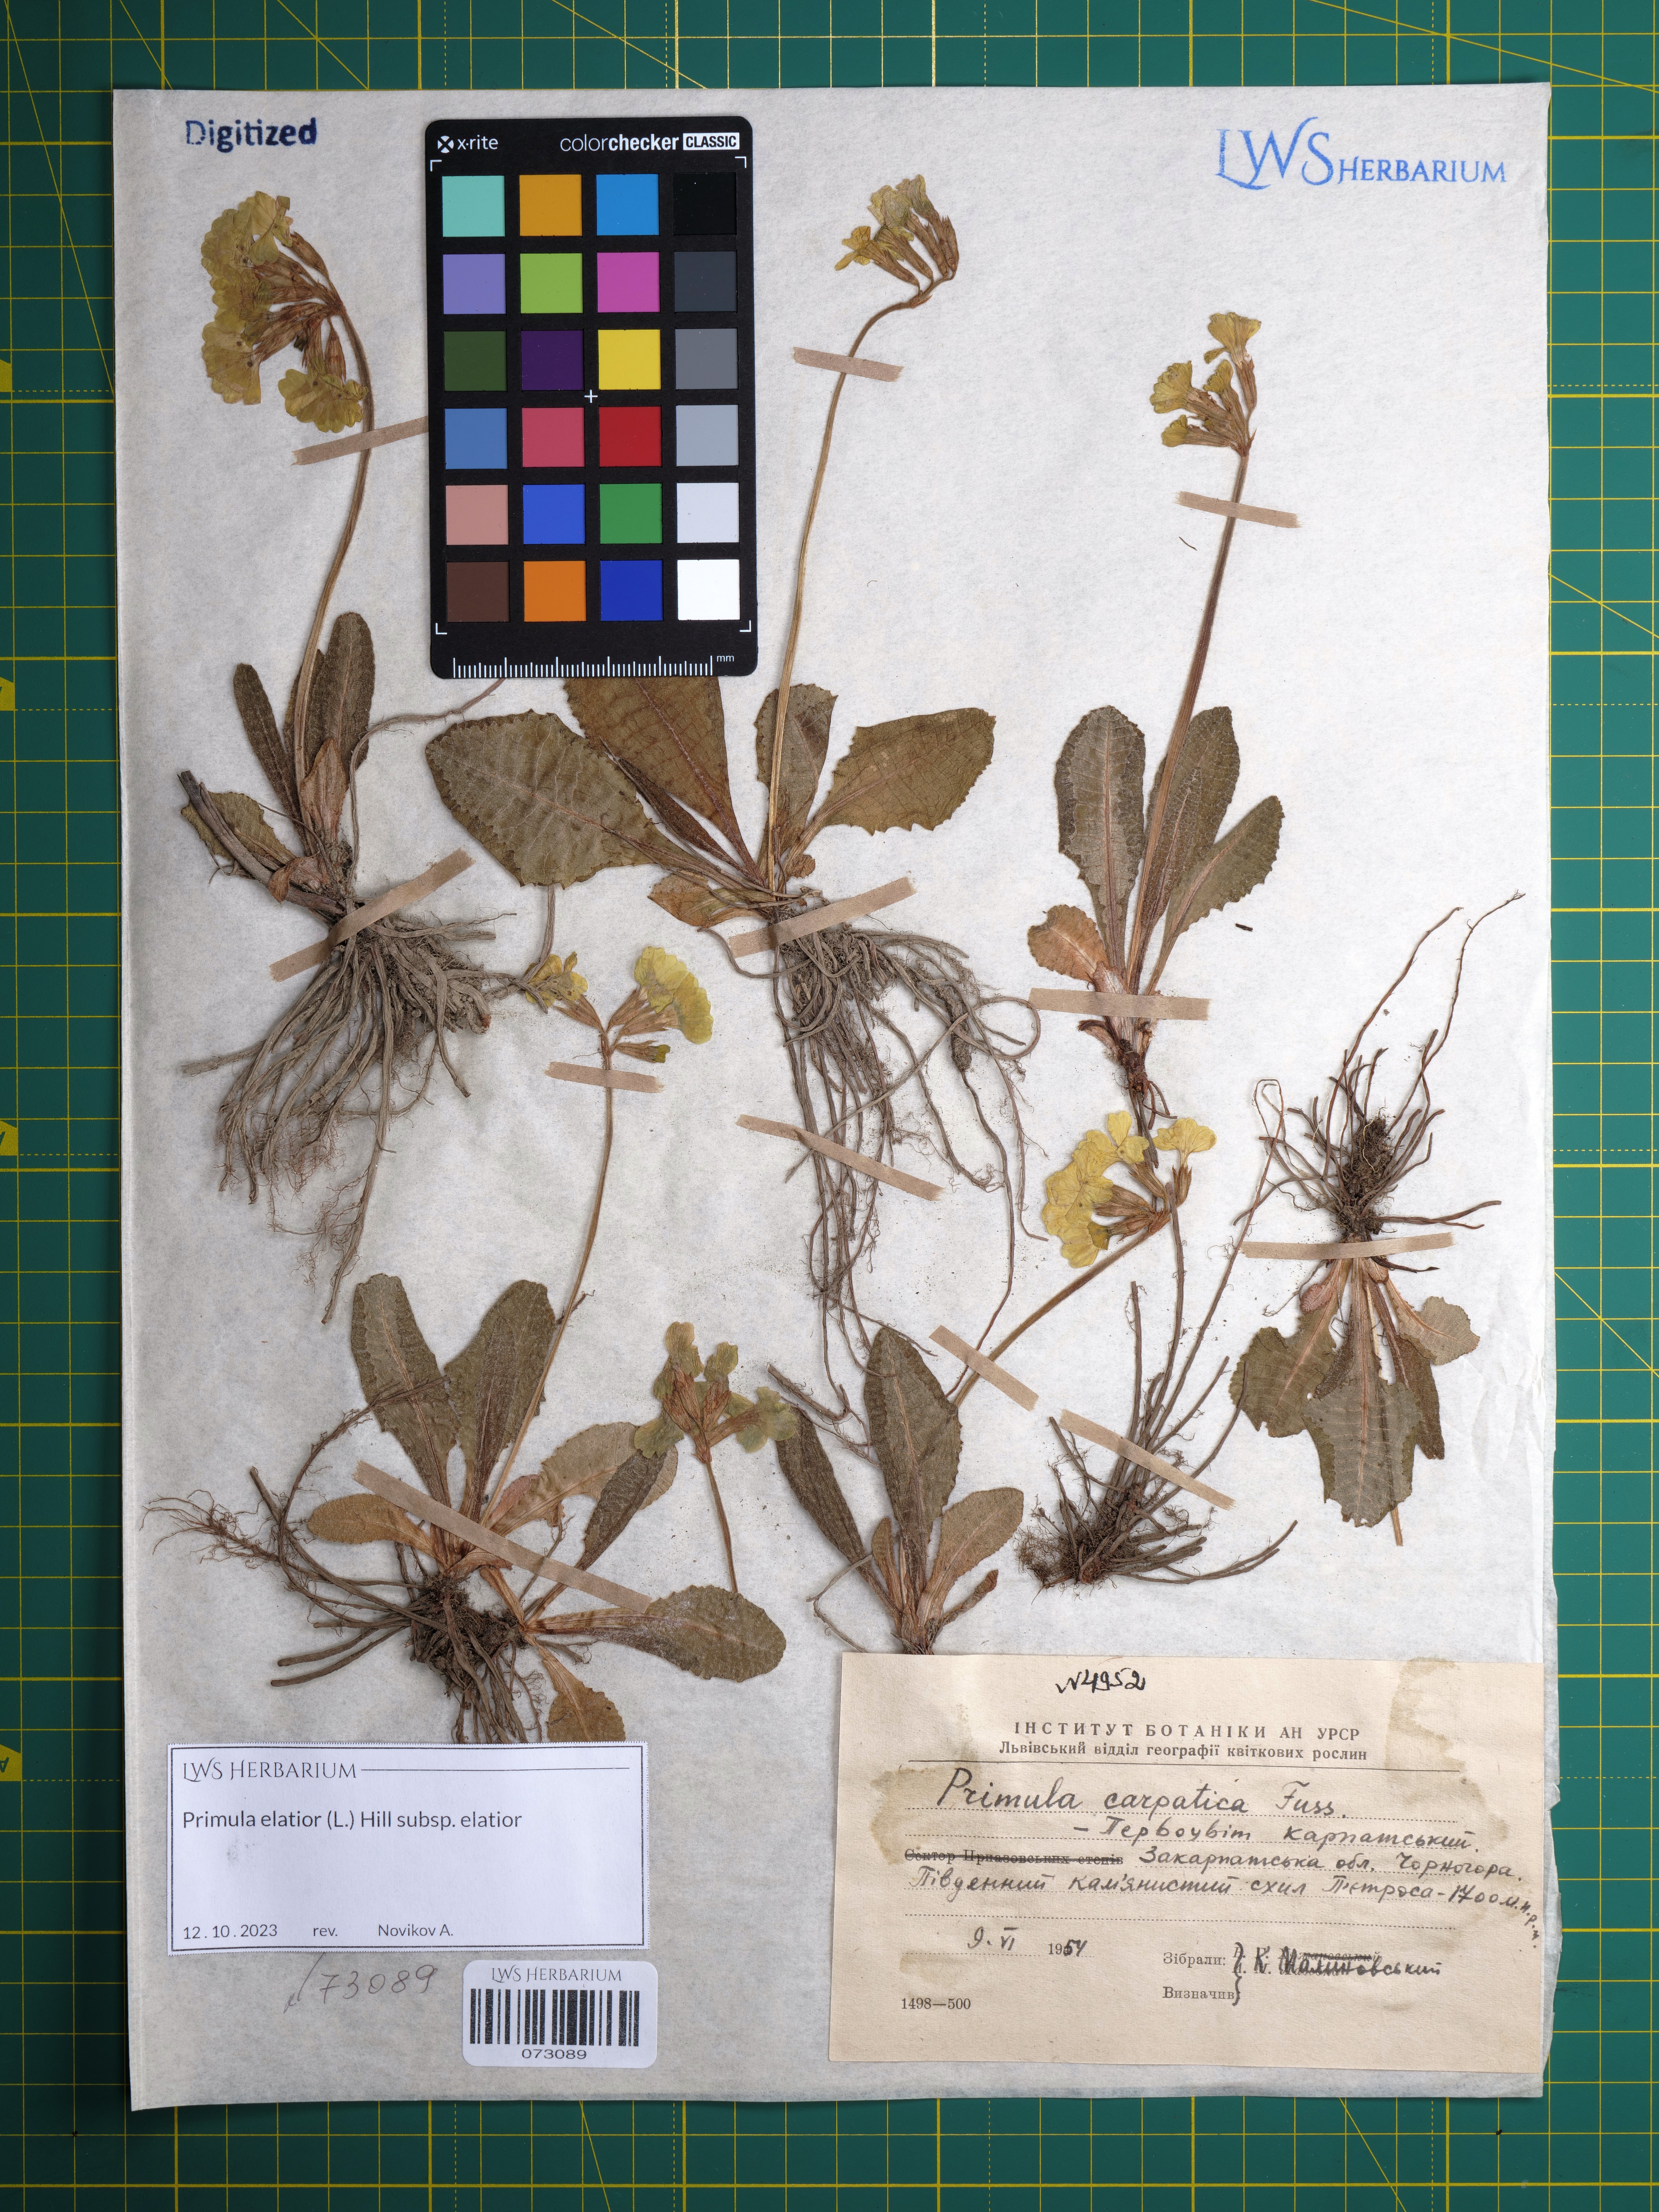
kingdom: Plantae
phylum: Tracheophyta
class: Magnoliopsida
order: Ericales
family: Primulaceae
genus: Primula
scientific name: Primula elatior
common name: Oxlip
